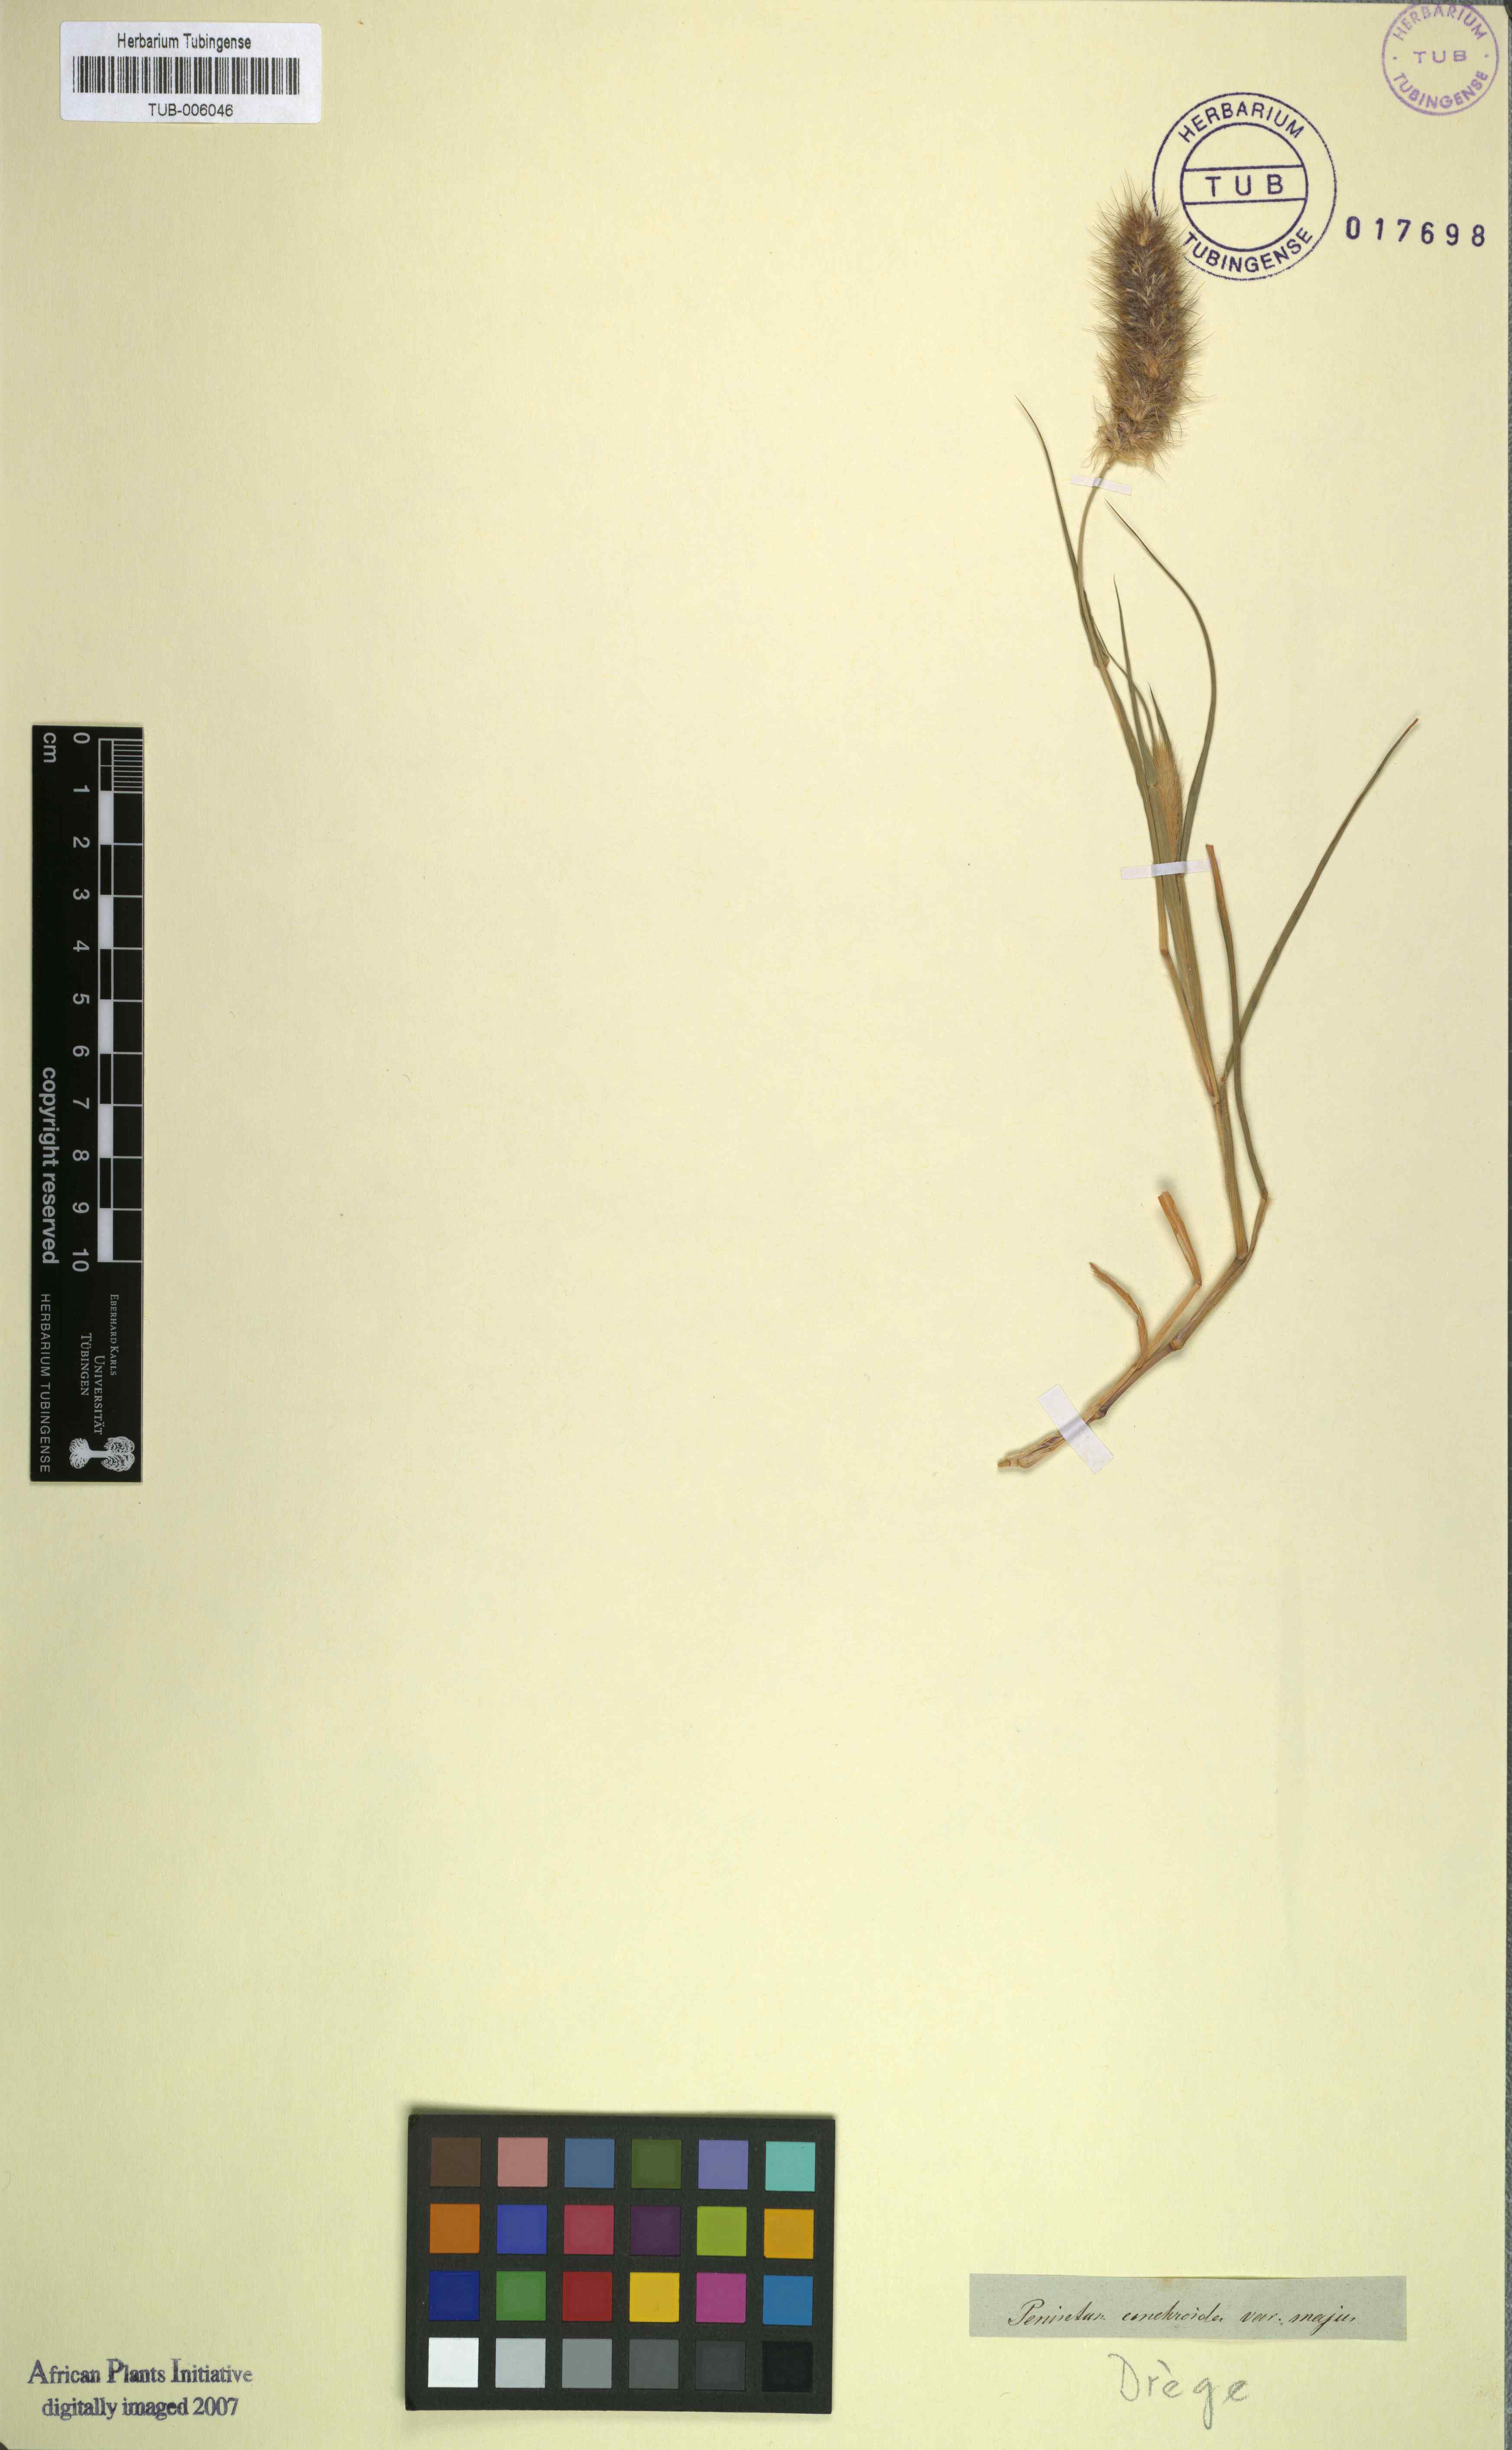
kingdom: Plantae
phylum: Tracheophyta
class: Liliopsida
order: Poales
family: Poaceae
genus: Cenchrus
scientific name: Cenchrus ciliaris
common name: Buffelgrass
